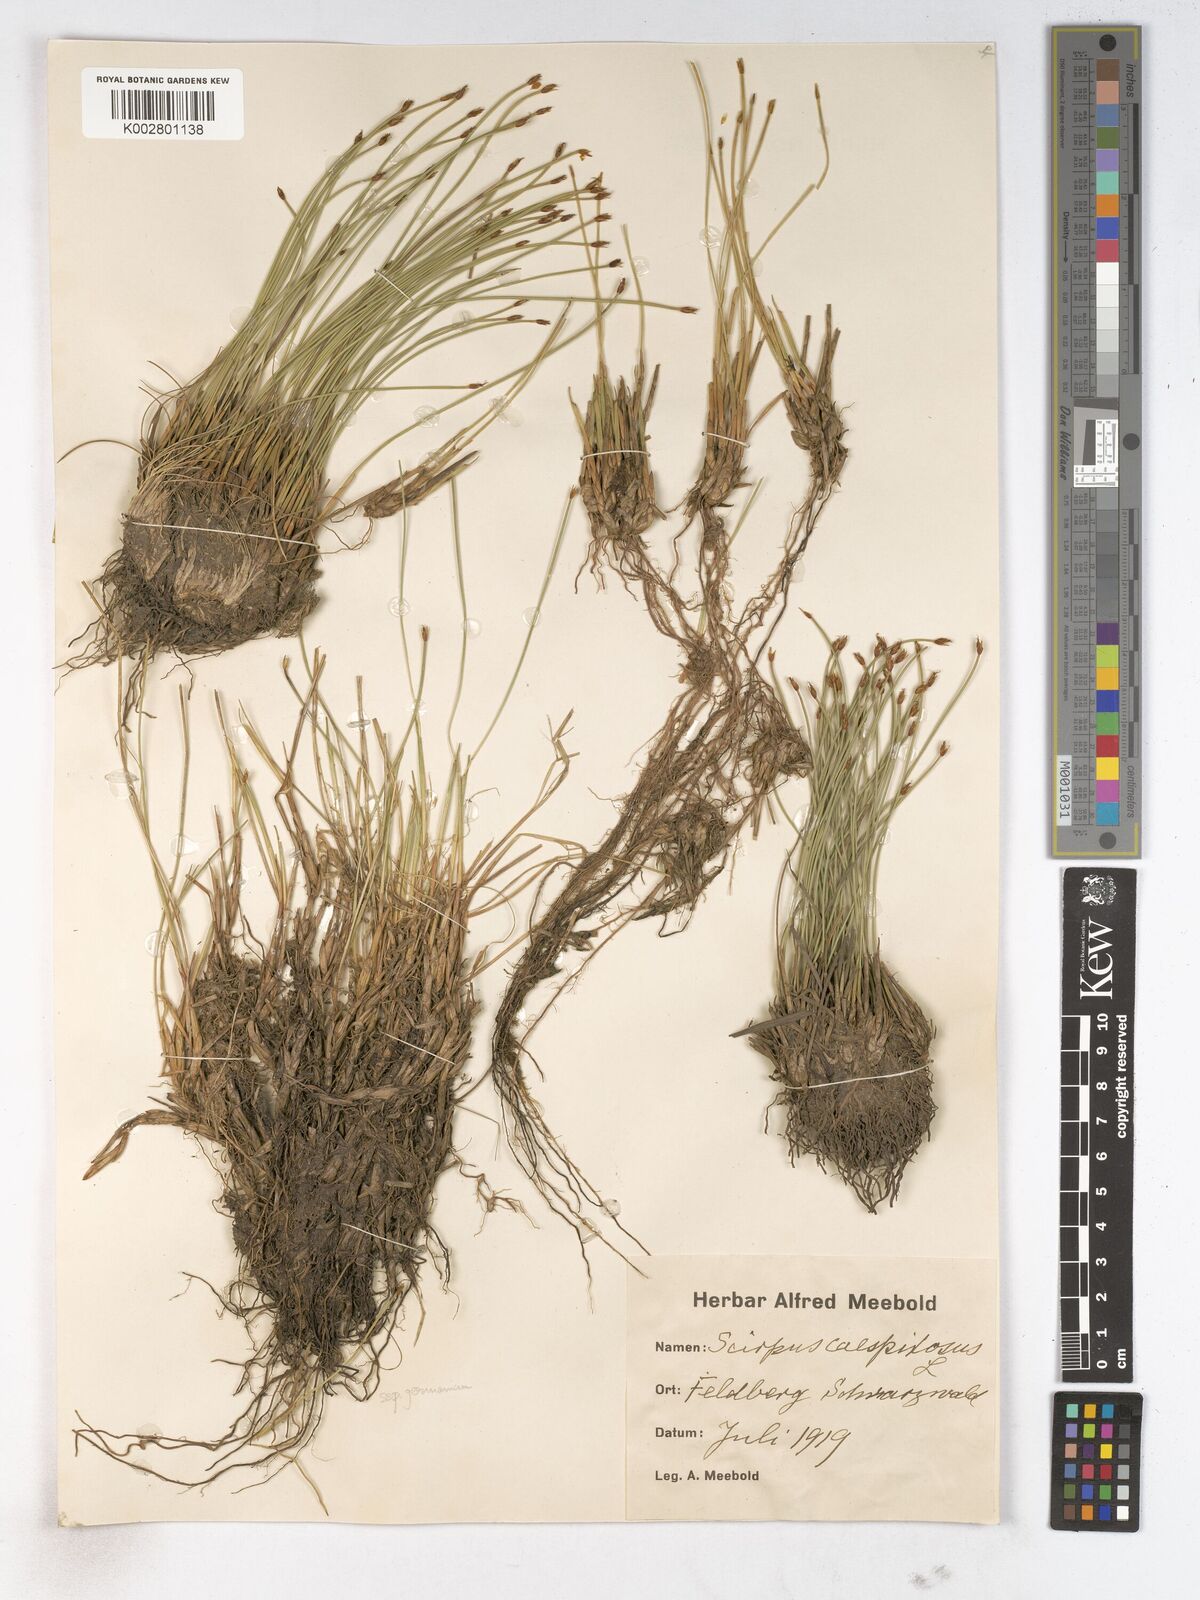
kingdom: Plantae
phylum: Tracheophyta
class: Liliopsida
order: Poales
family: Cyperaceae
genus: Trichophorum
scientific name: Trichophorum cespitosum
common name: Cespitose bulrush
